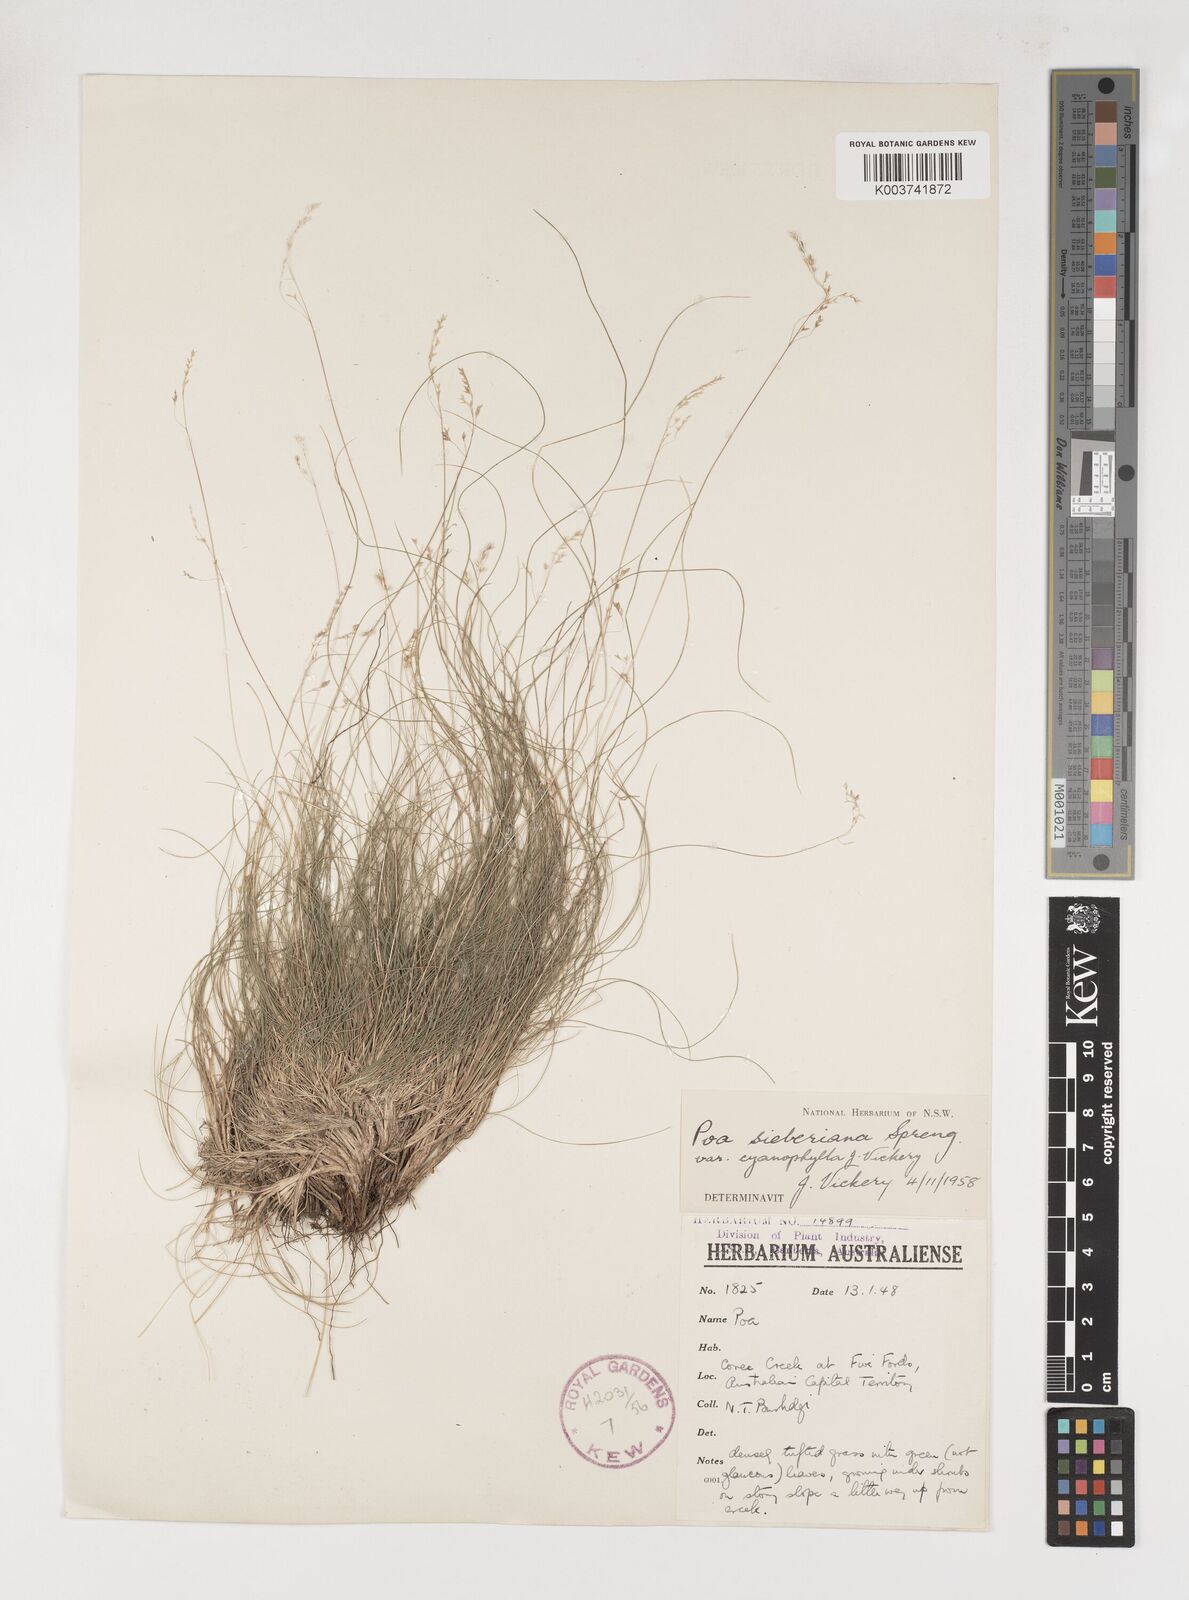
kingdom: Plantae
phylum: Tracheophyta
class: Liliopsida
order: Poales
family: Poaceae
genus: Poa
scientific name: Poa sieberiana
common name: Tussock poa
